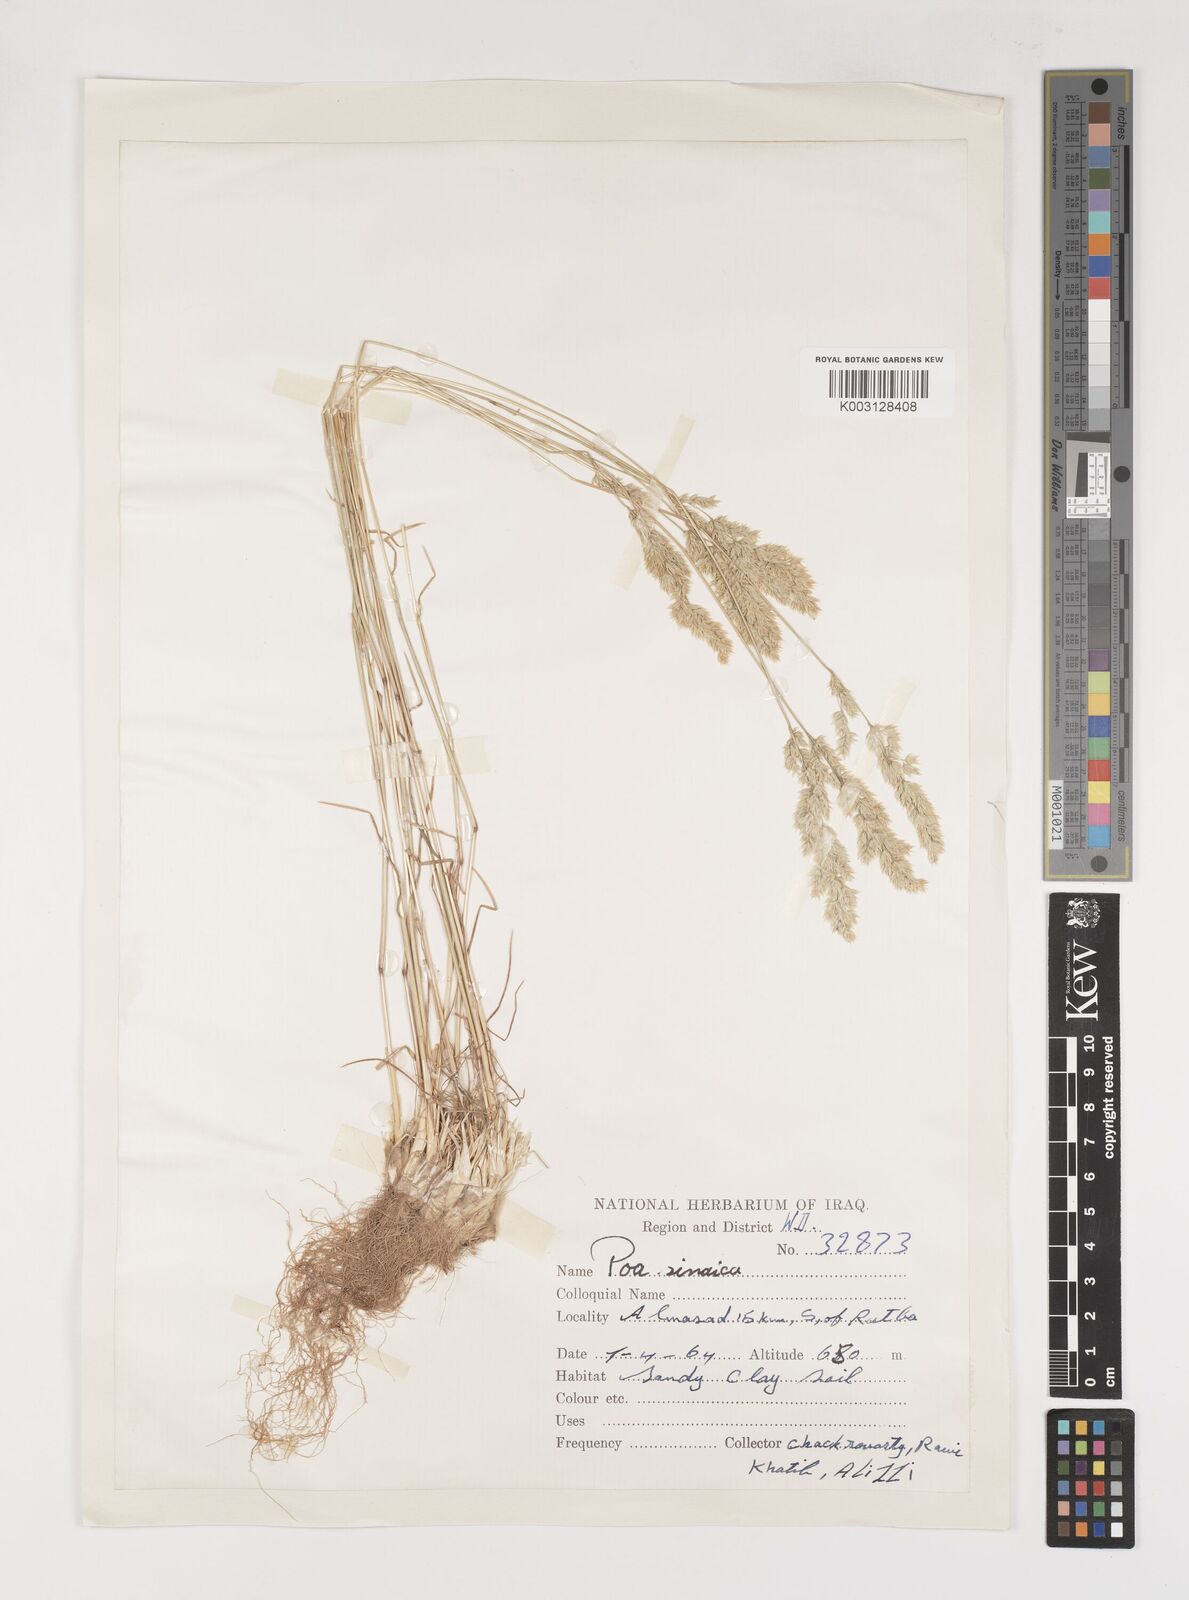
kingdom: Plantae
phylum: Tracheophyta
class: Liliopsida
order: Poales
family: Poaceae
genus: Poa
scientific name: Poa sinaica
